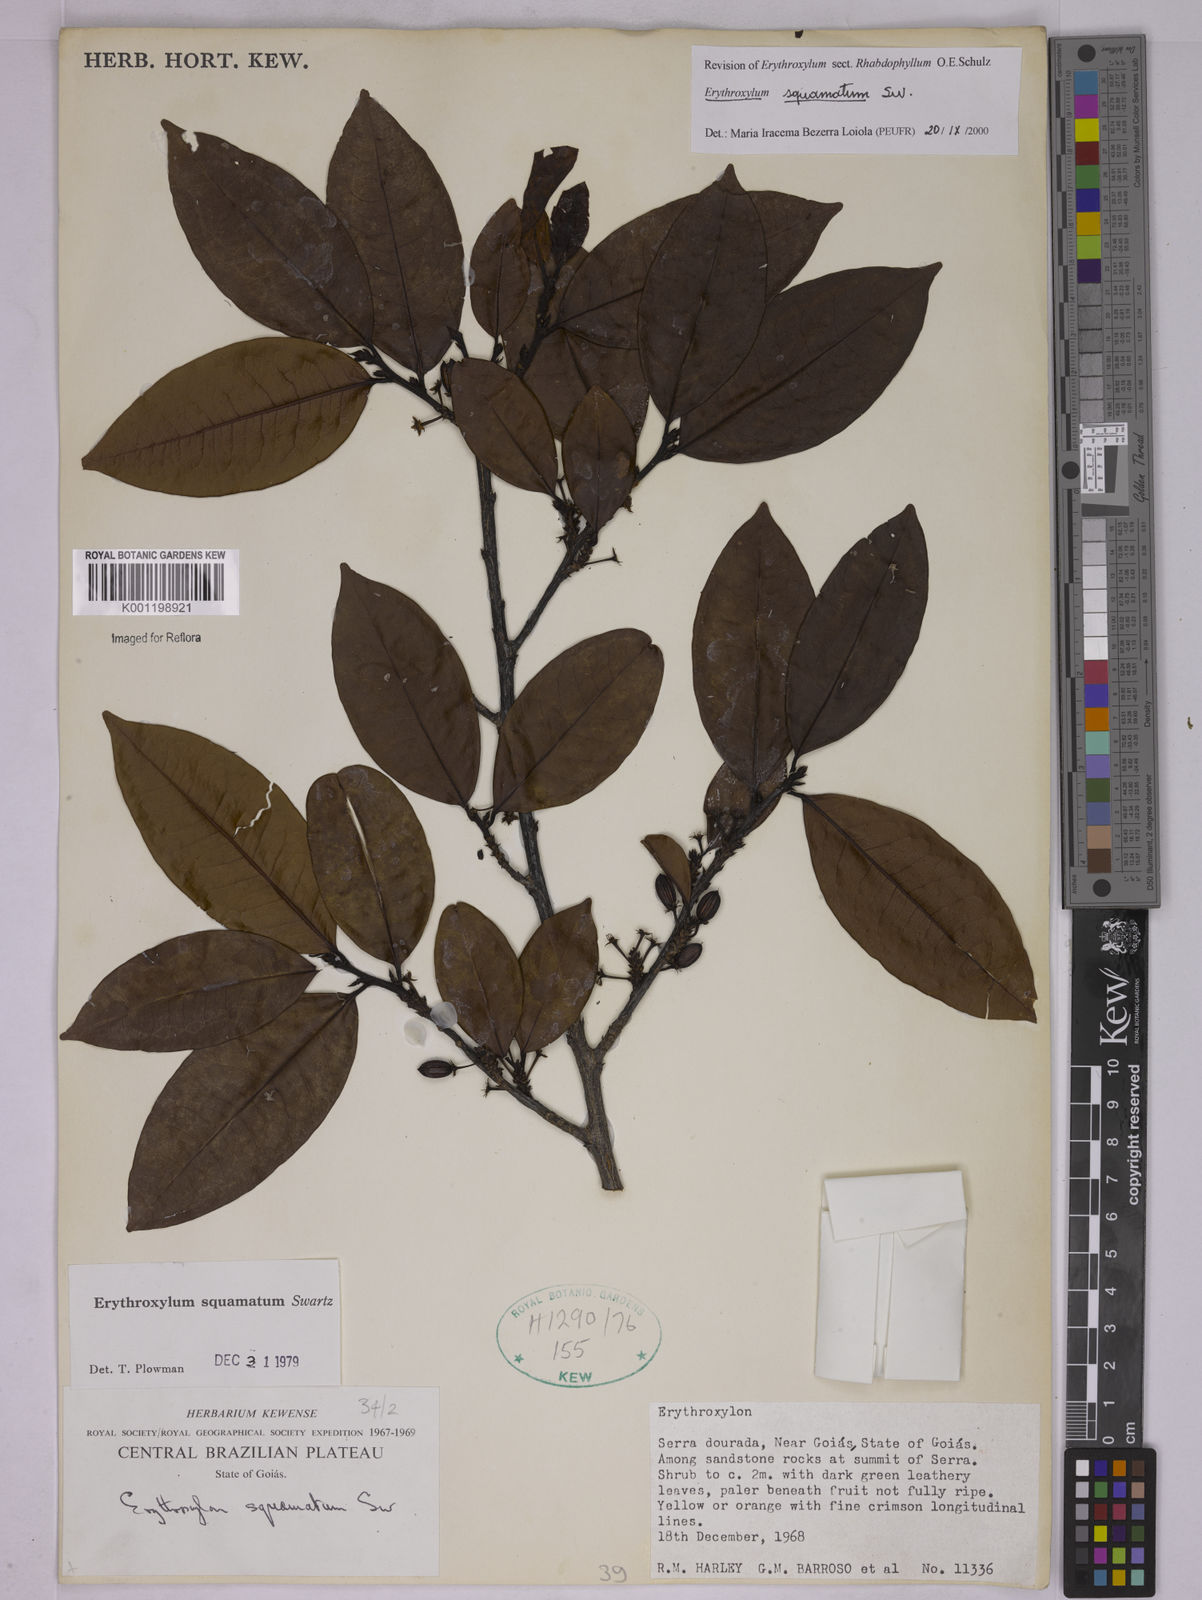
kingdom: Plantae
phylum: Tracheophyta
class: Magnoliopsida
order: Malpighiales
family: Erythroxylaceae
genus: Erythroxylum
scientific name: Erythroxylum squamatum
